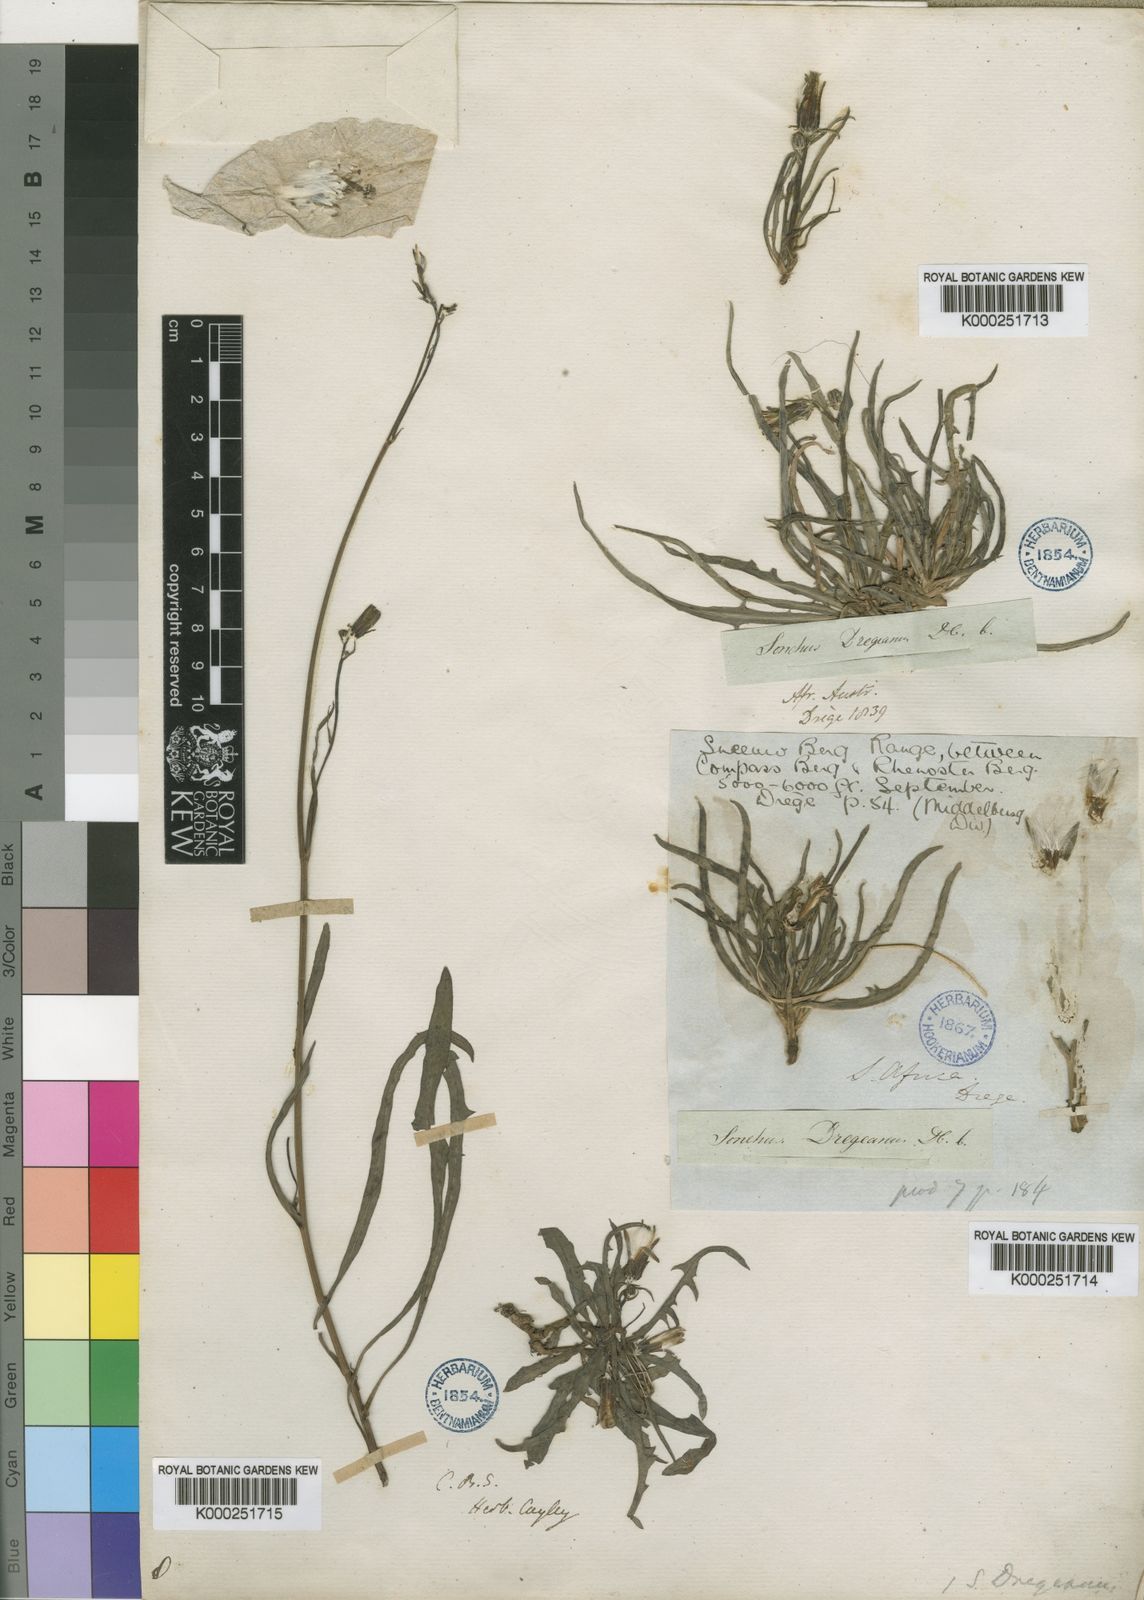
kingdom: Plantae
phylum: Tracheophyta
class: Magnoliopsida
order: Asterales
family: Asteraceae
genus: Sonchus
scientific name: Sonchus dregeanus
